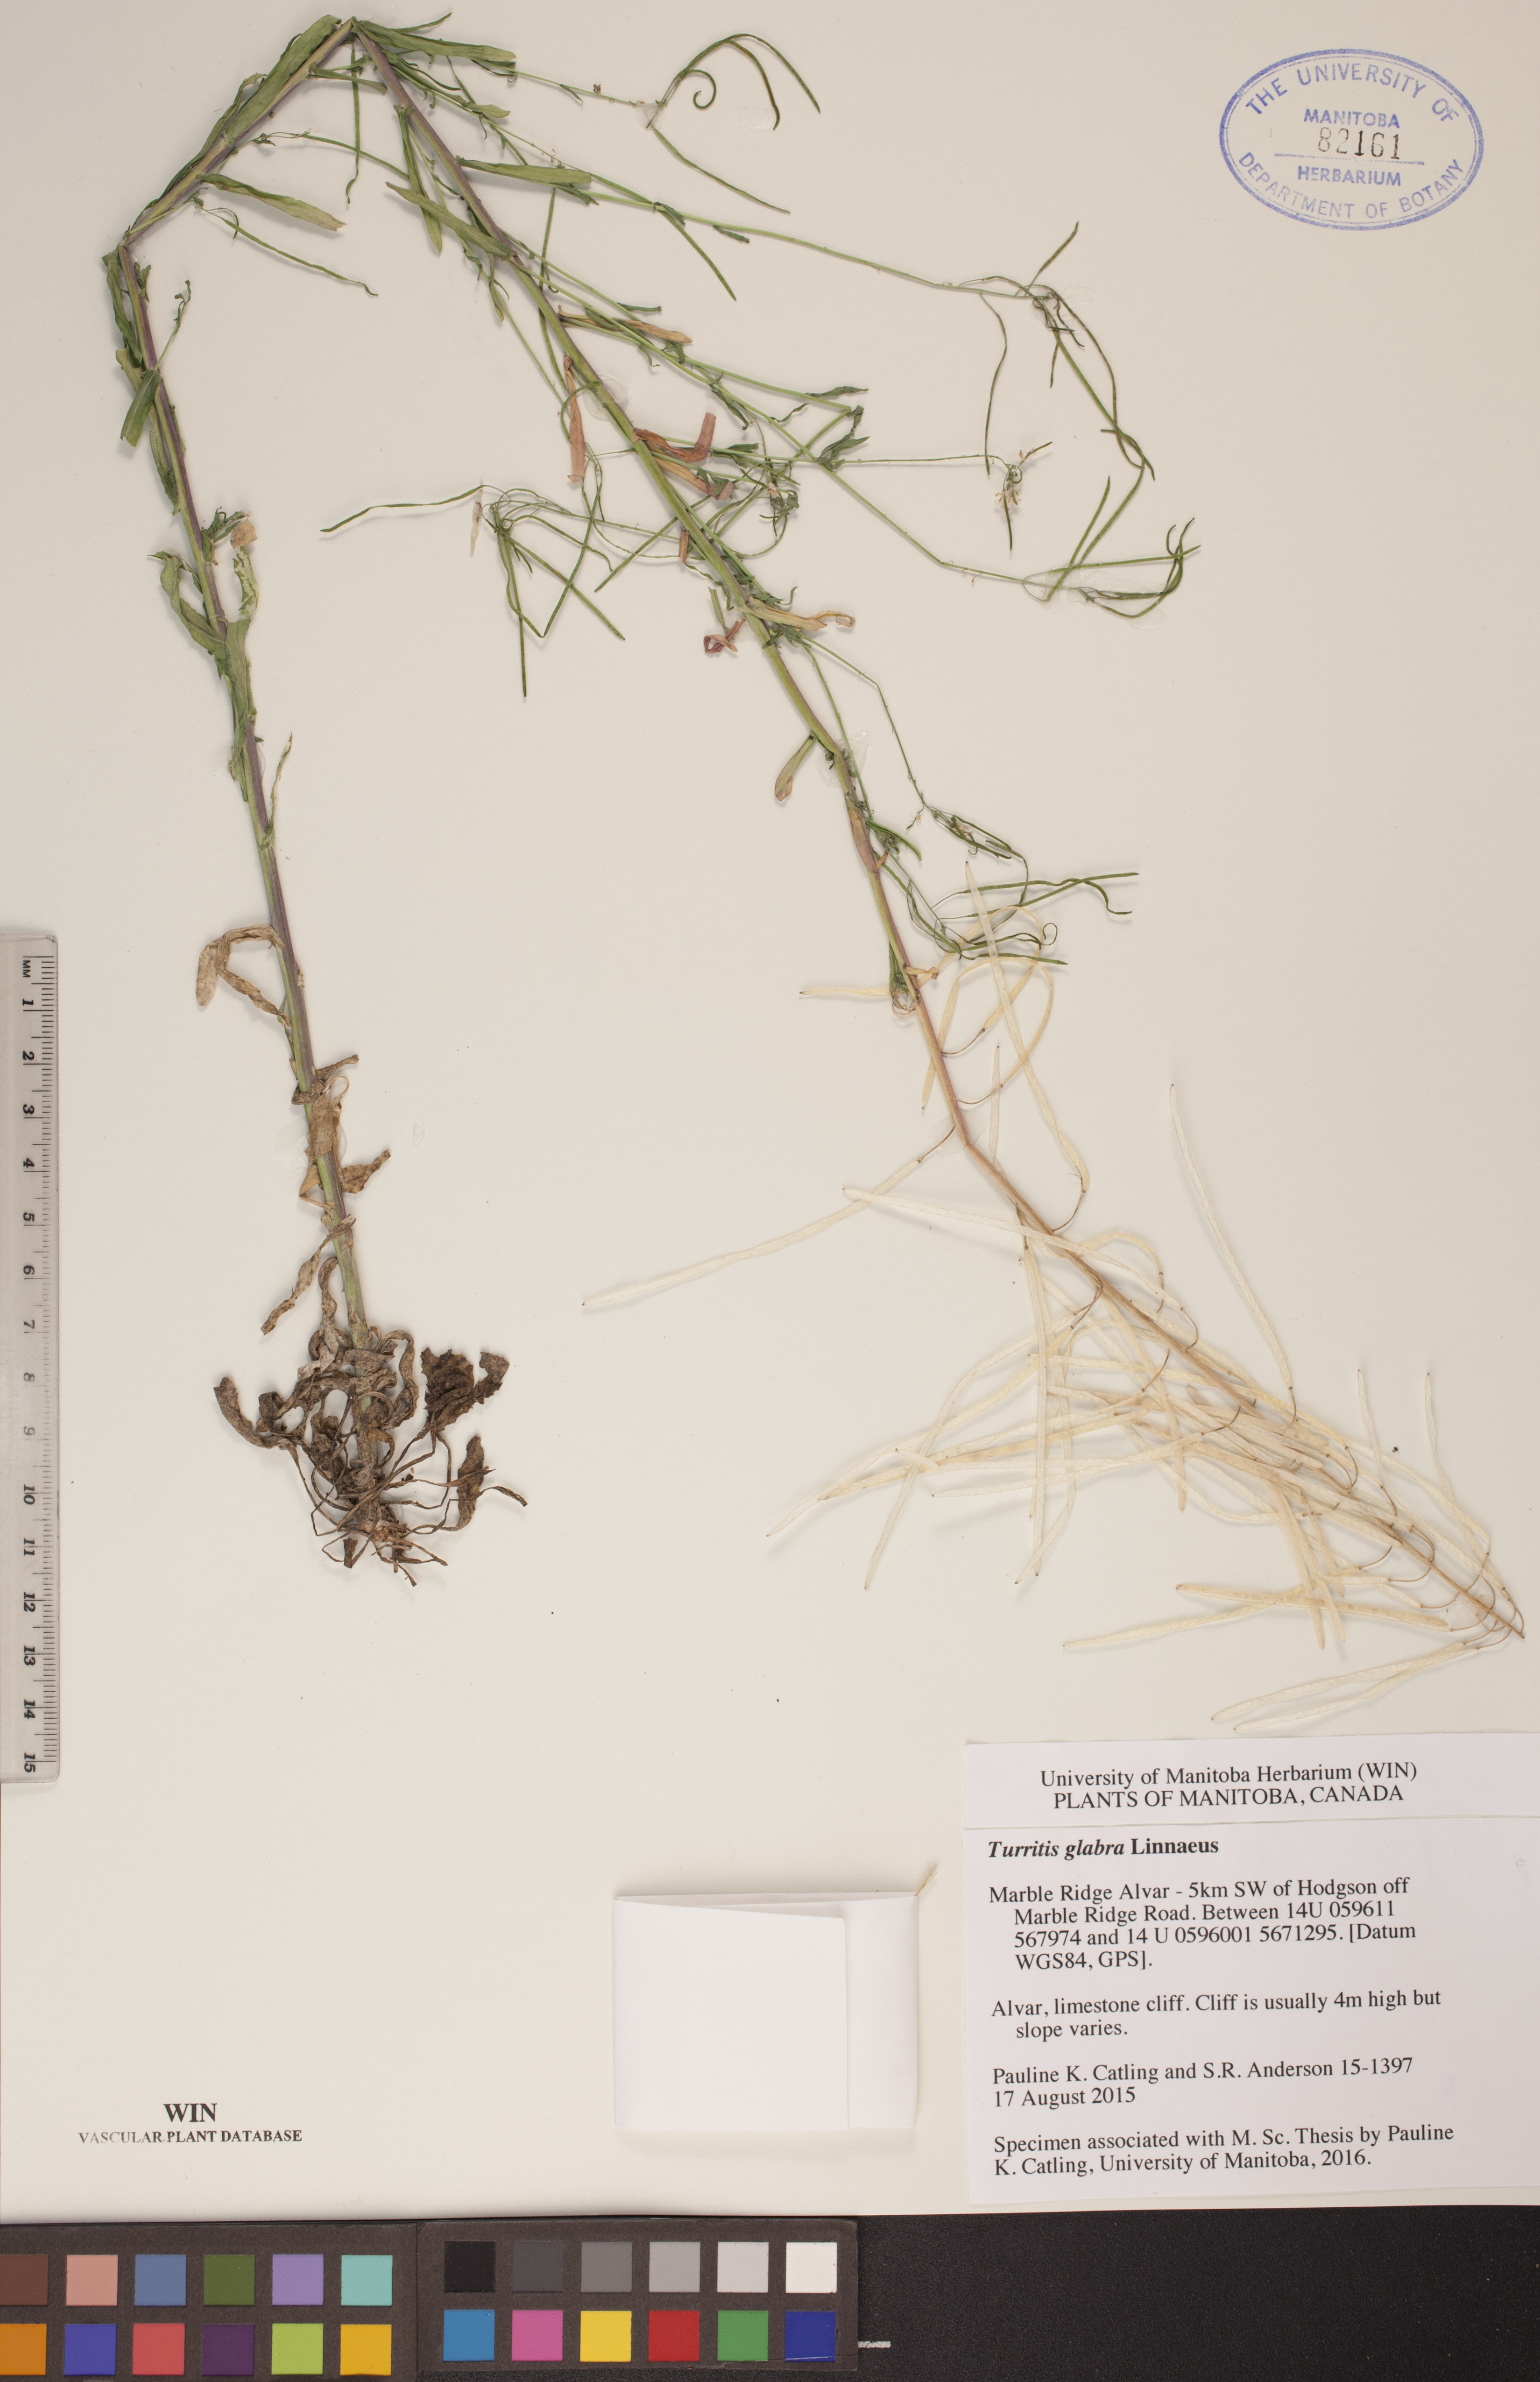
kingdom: Plantae
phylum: Tracheophyta
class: Magnoliopsida
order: Brassicales
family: Brassicaceae
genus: Turritis
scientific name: Turritis glabra
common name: Tower rockcress
